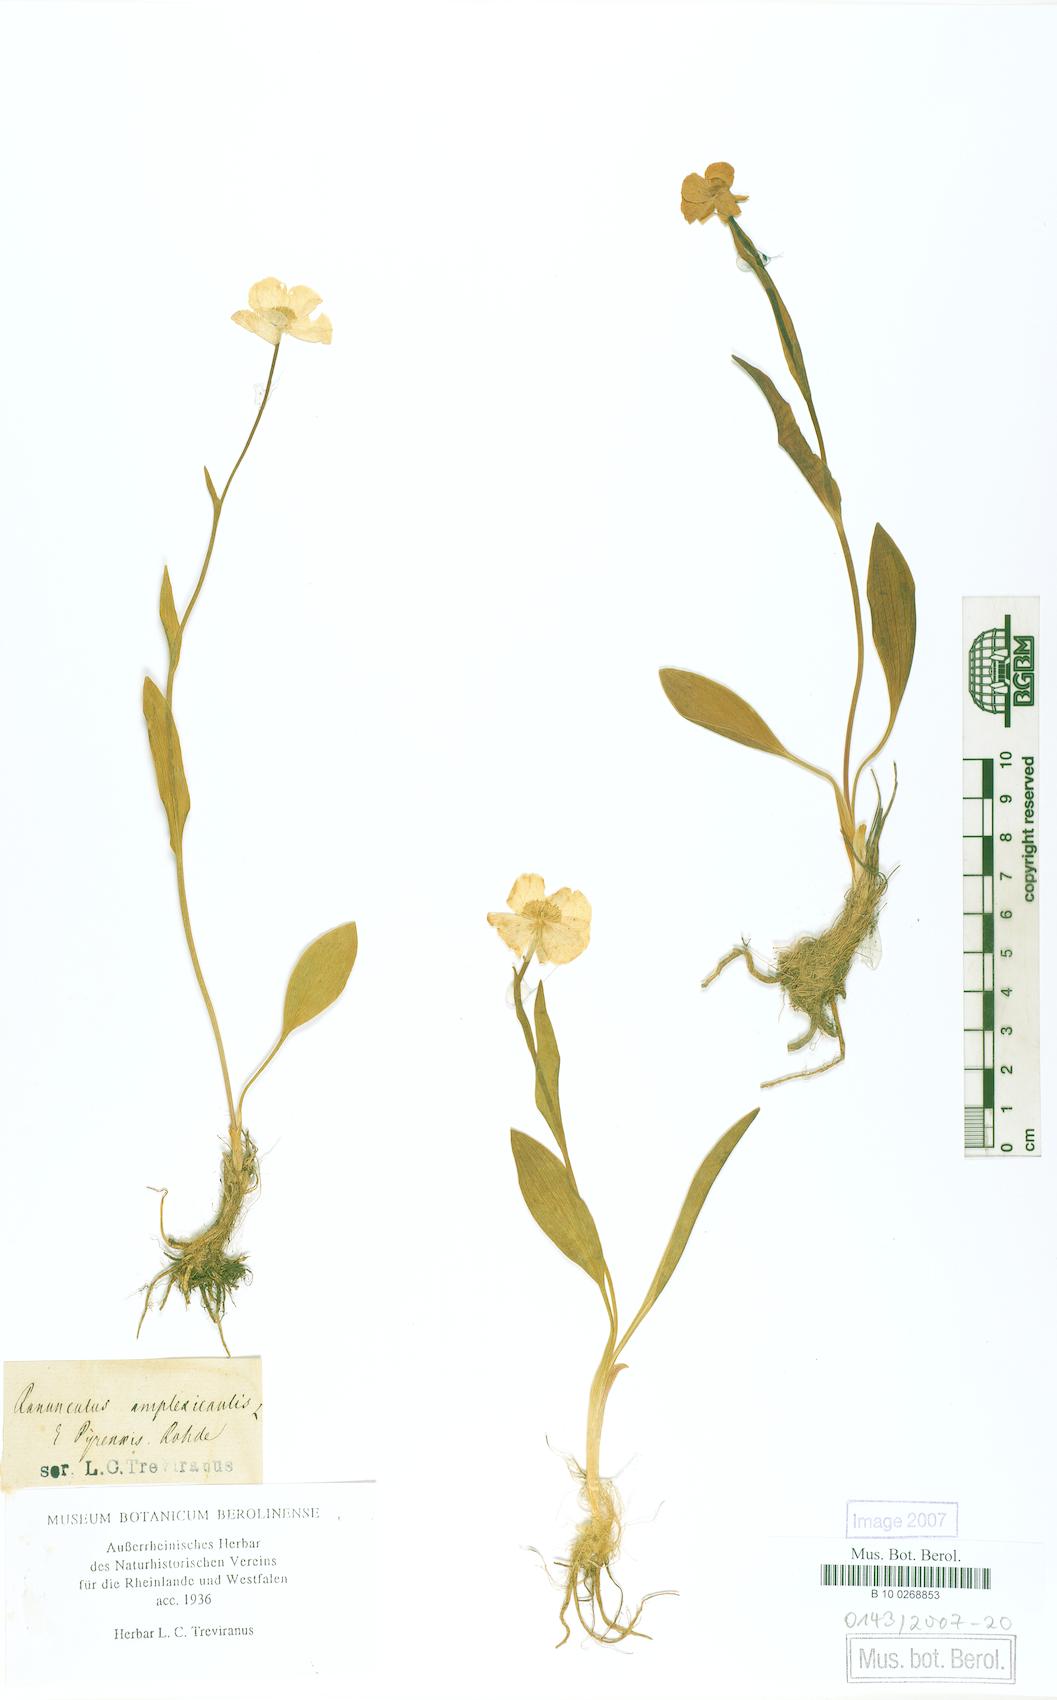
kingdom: Plantae
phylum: Tracheophyta
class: Magnoliopsida
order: Ranunculales
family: Ranunculaceae
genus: Ranunculus
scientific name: Ranunculus amplexicaulis
